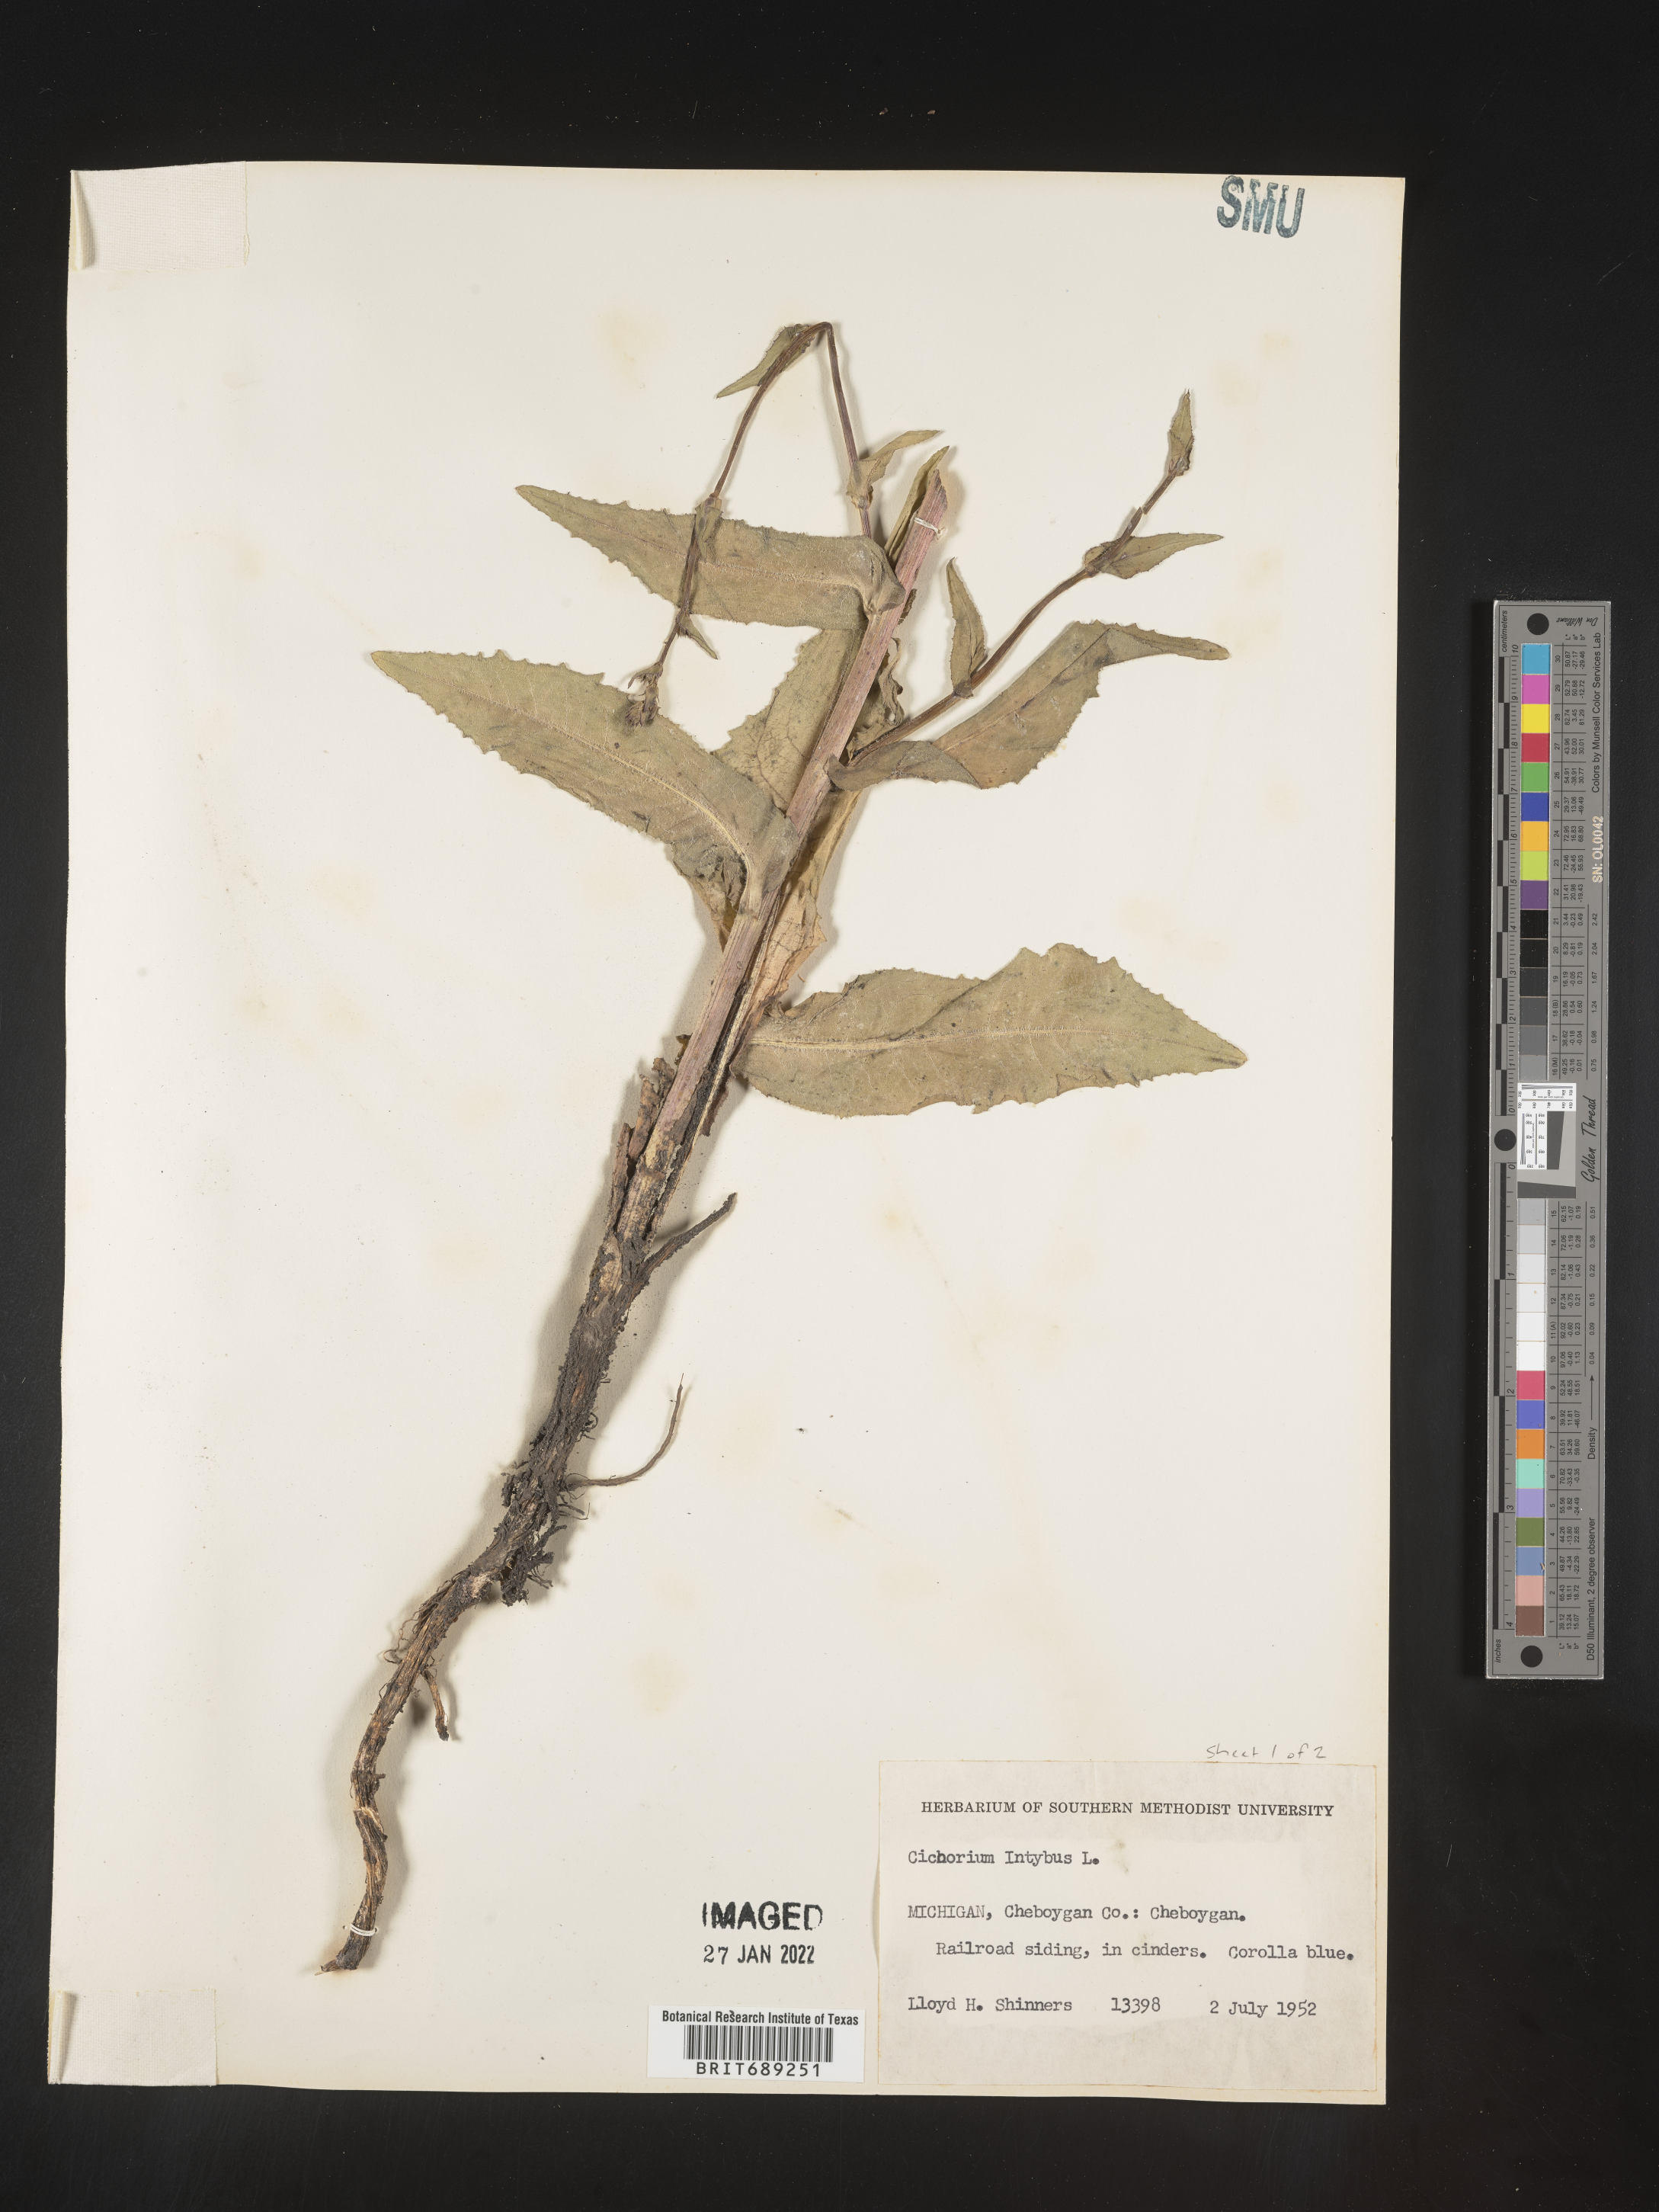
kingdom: Plantae
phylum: Tracheophyta
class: Magnoliopsida
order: Asterales
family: Asteraceae
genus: Cichorium
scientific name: Cichorium intybus
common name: Chicory
